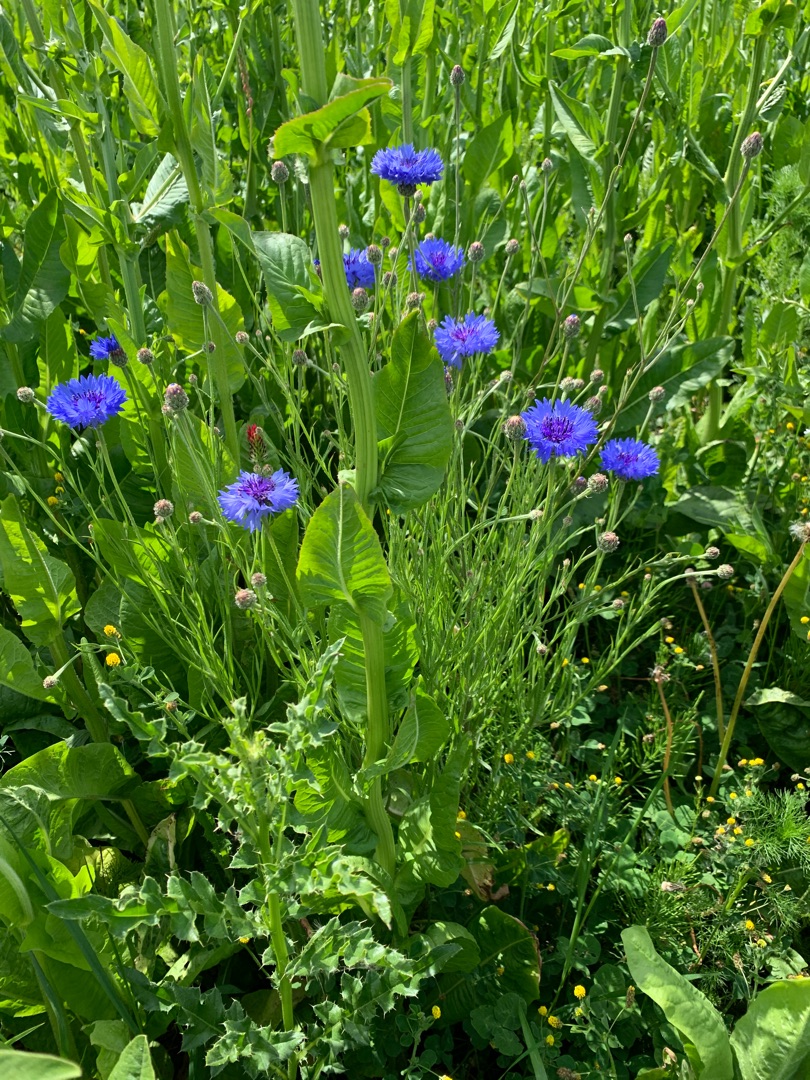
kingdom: Plantae
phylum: Tracheophyta
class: Magnoliopsida
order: Asterales
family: Asteraceae
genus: Centaurea
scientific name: Centaurea cyanus
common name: Kornblomst
